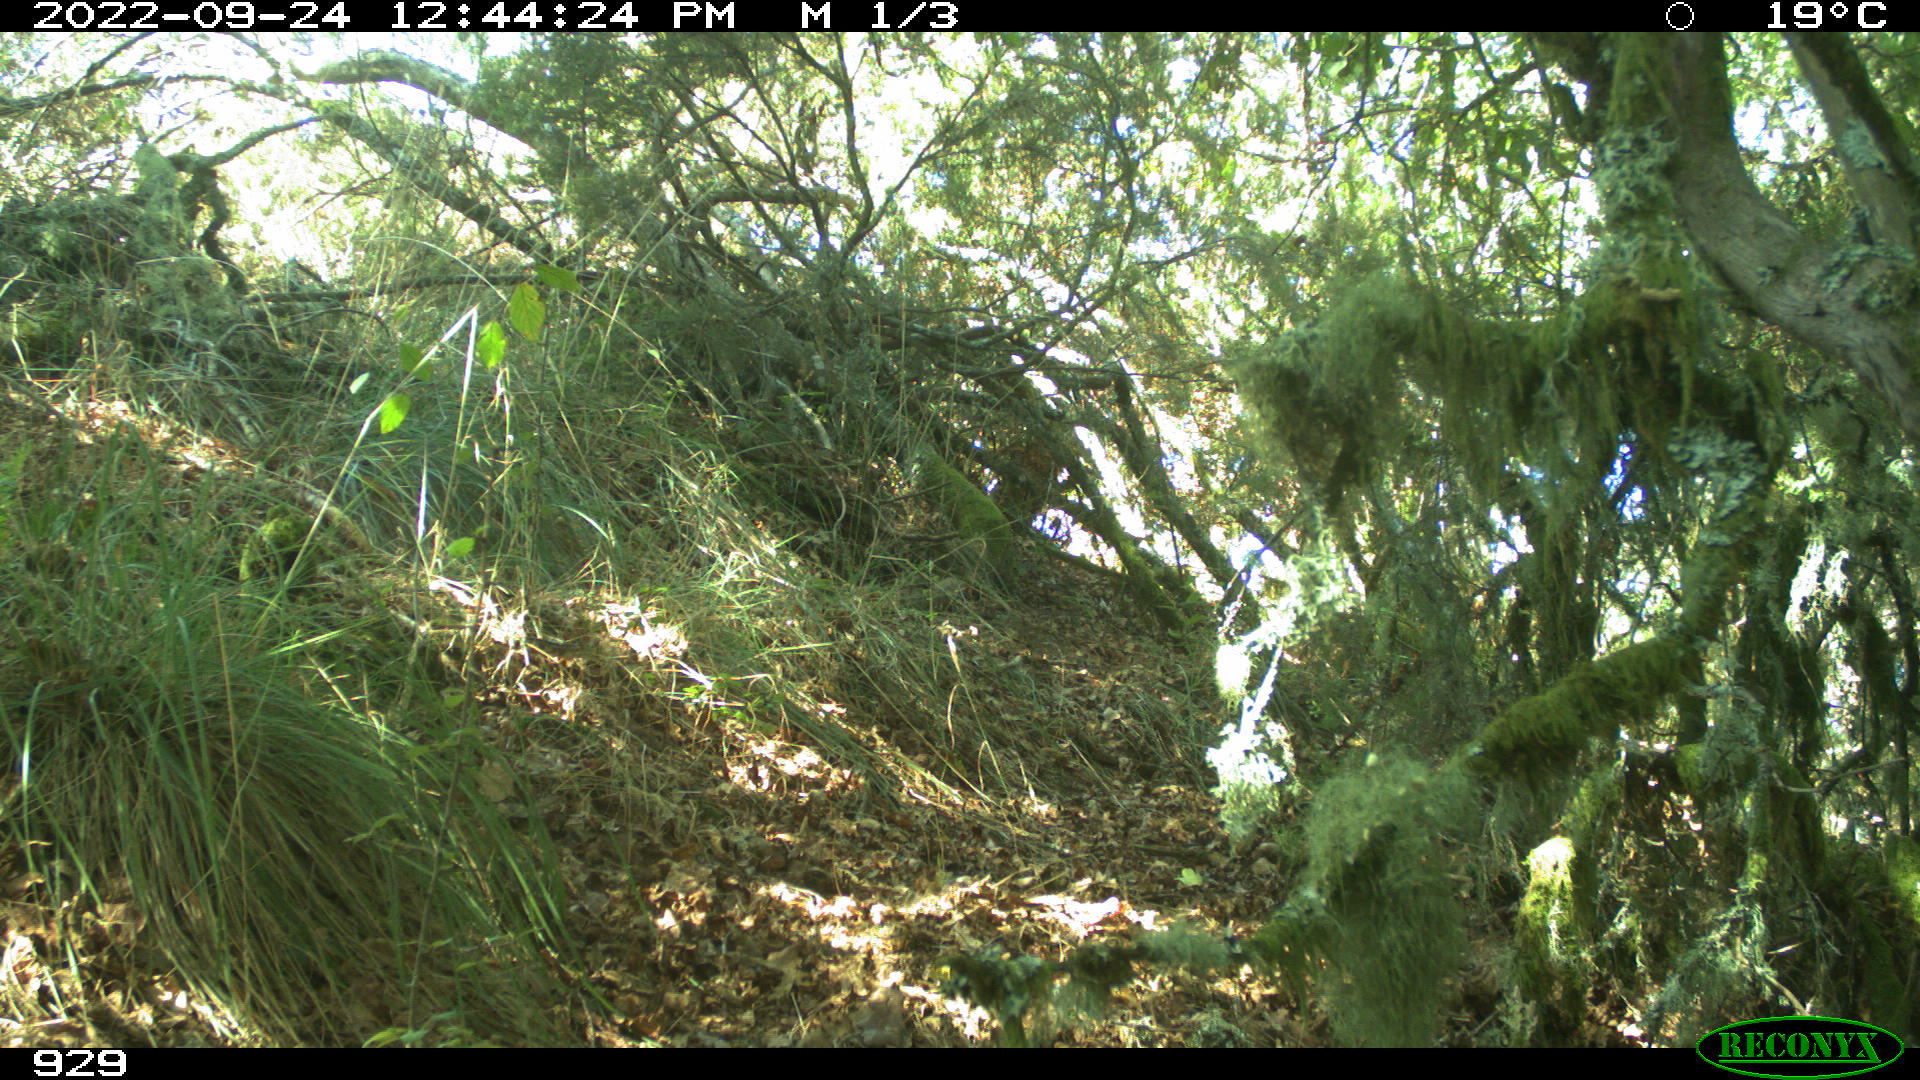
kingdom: Animalia
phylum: Chordata
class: Mammalia
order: Artiodactyla
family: Cervidae
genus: Capreolus
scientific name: Capreolus capreolus
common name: Western roe deer
